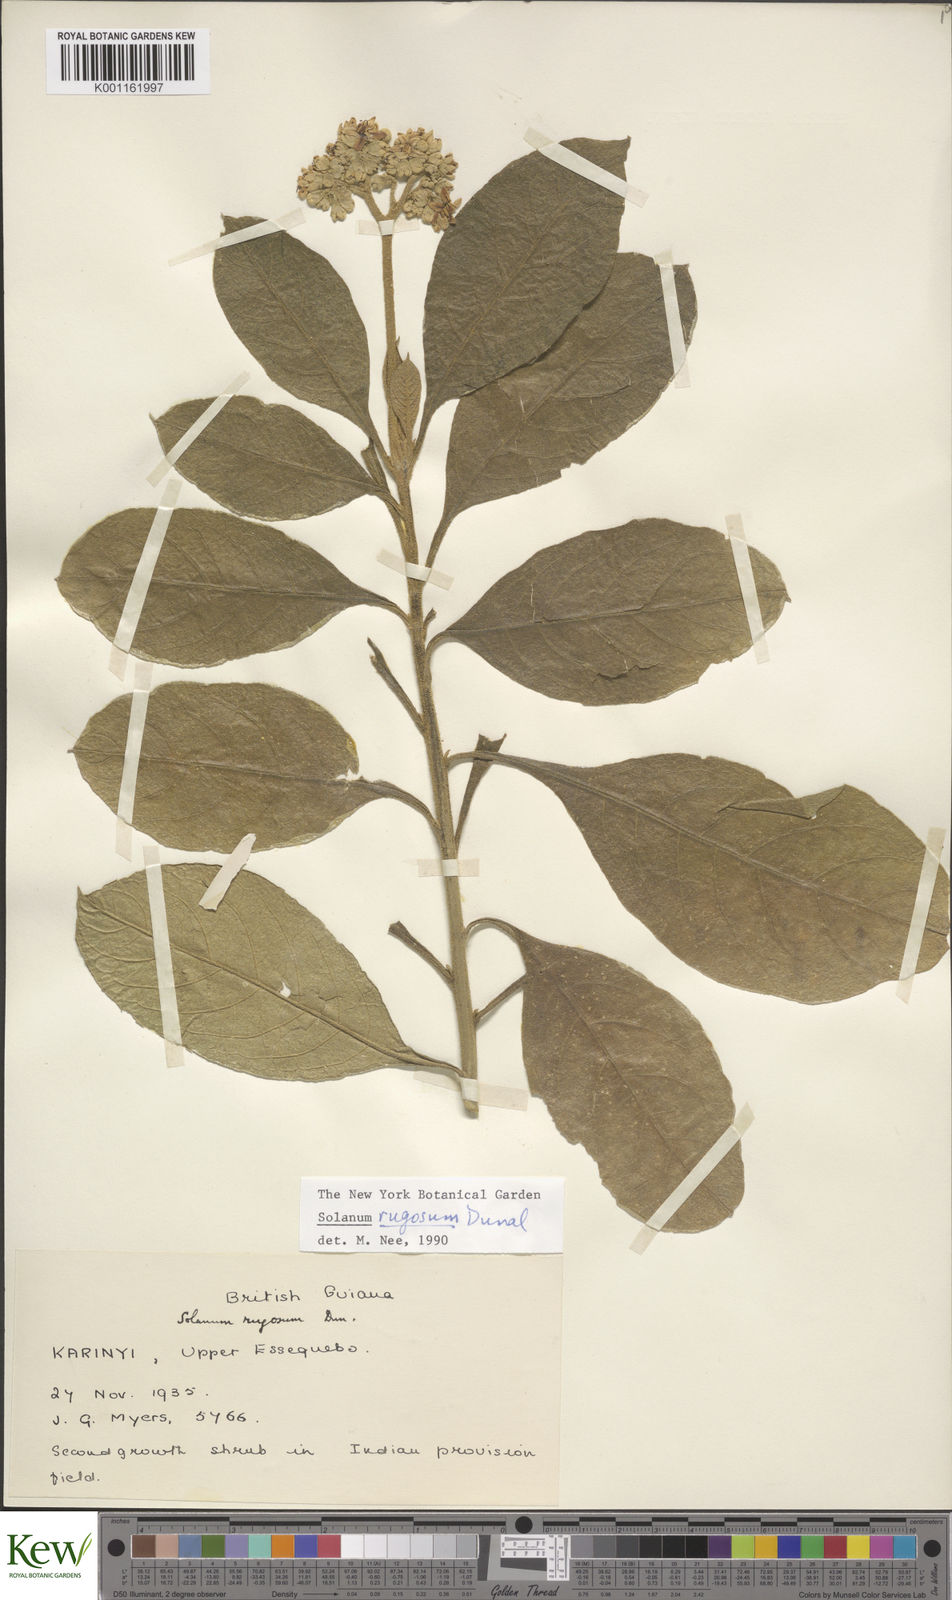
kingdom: Plantae
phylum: Tracheophyta
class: Magnoliopsida
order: Solanales
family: Solanaceae
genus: Solanum
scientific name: Solanum rugosum
